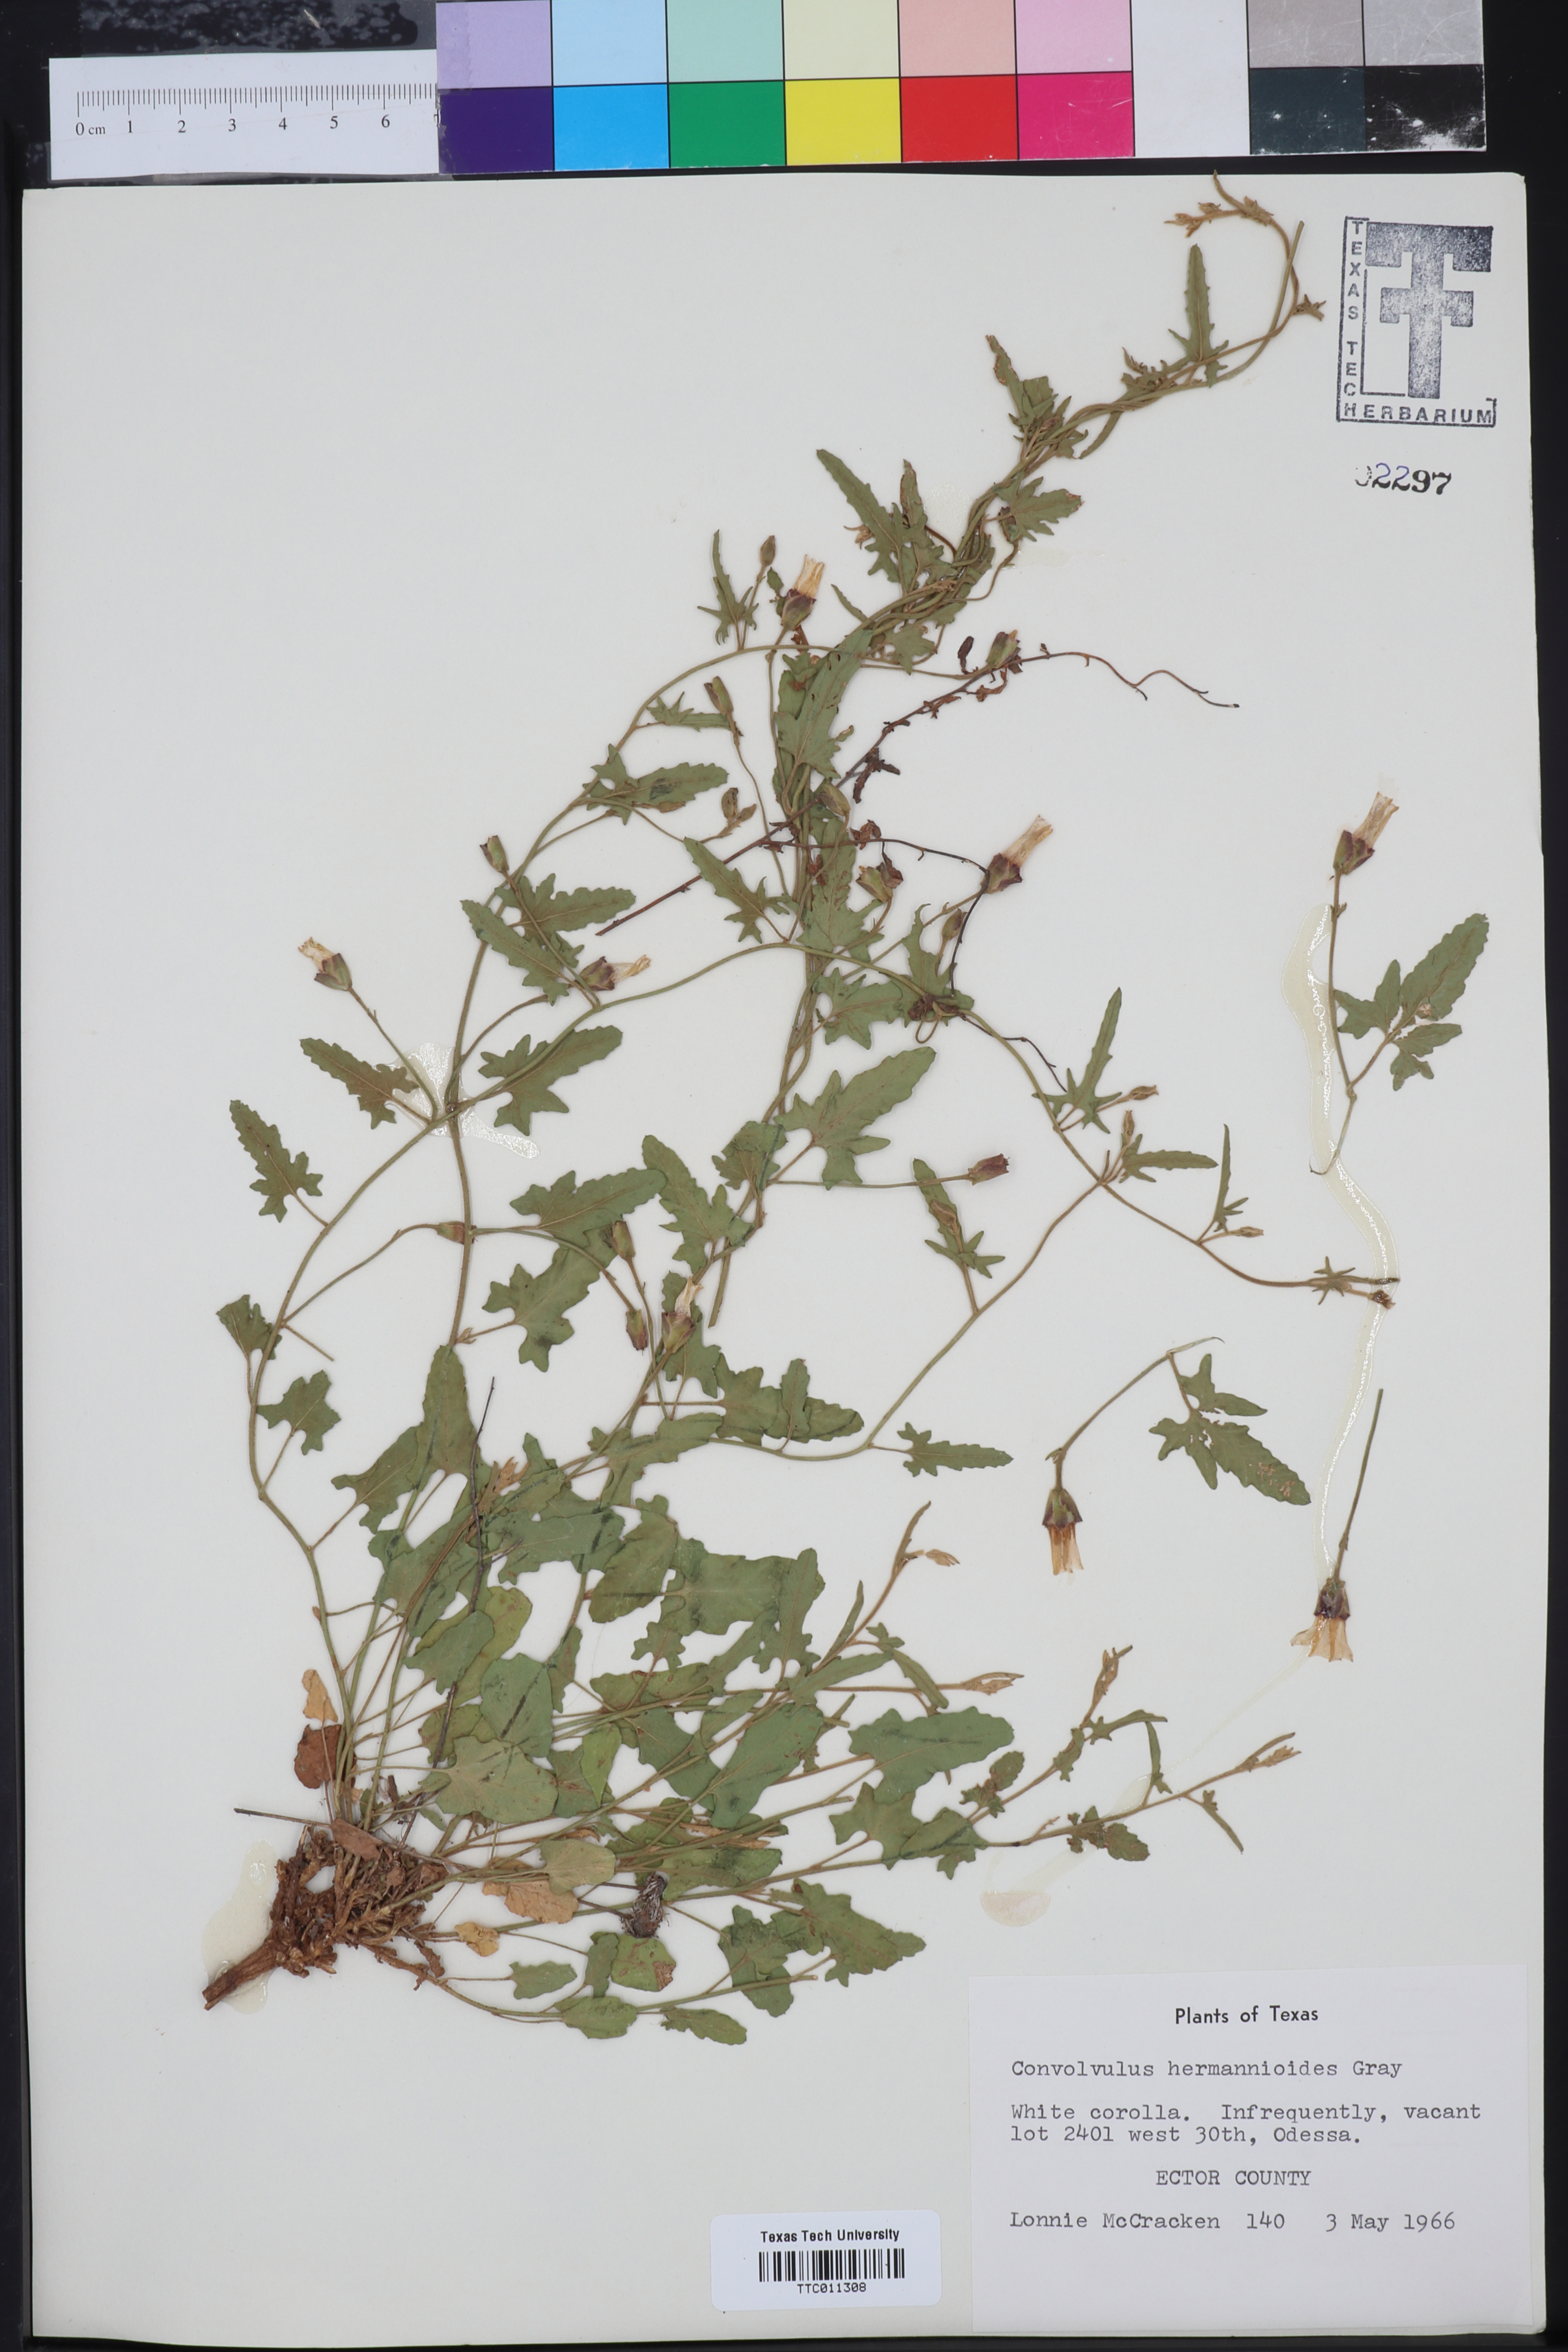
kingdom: Plantae
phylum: Tracheophyta
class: Magnoliopsida
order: Solanales
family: Convolvulaceae
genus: Convolvulus
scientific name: Convolvulus equitans
